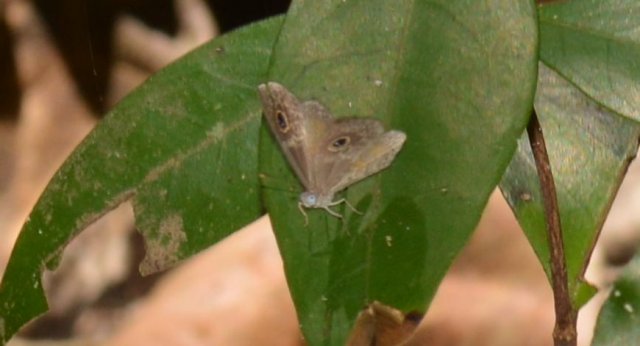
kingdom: Animalia
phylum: Arthropoda
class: Insecta
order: Lepidoptera
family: Riodinidae
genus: Perophthalma
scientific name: Perophthalma tullius
